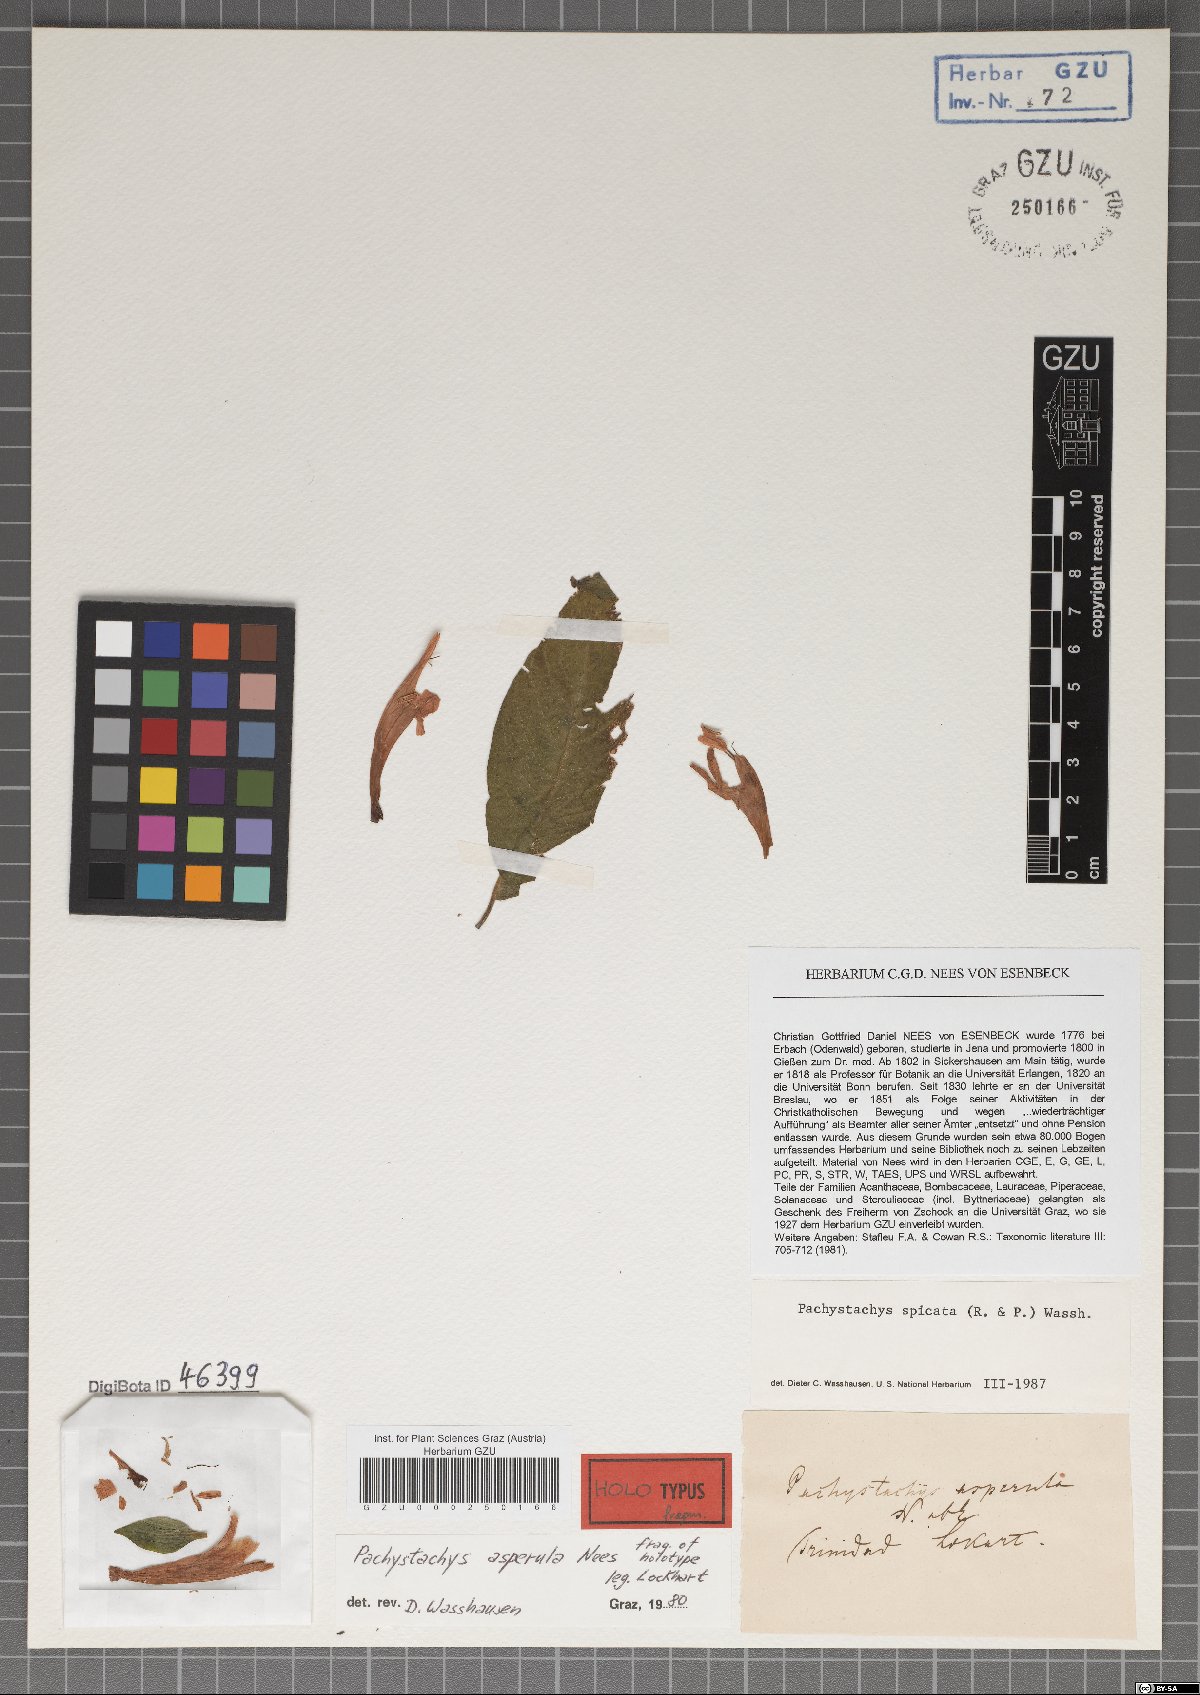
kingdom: Plantae
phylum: Tracheophyta
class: Magnoliopsida
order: Lamiales
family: Acanthaceae
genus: Pachystachys
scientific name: Pachystachys spicata
